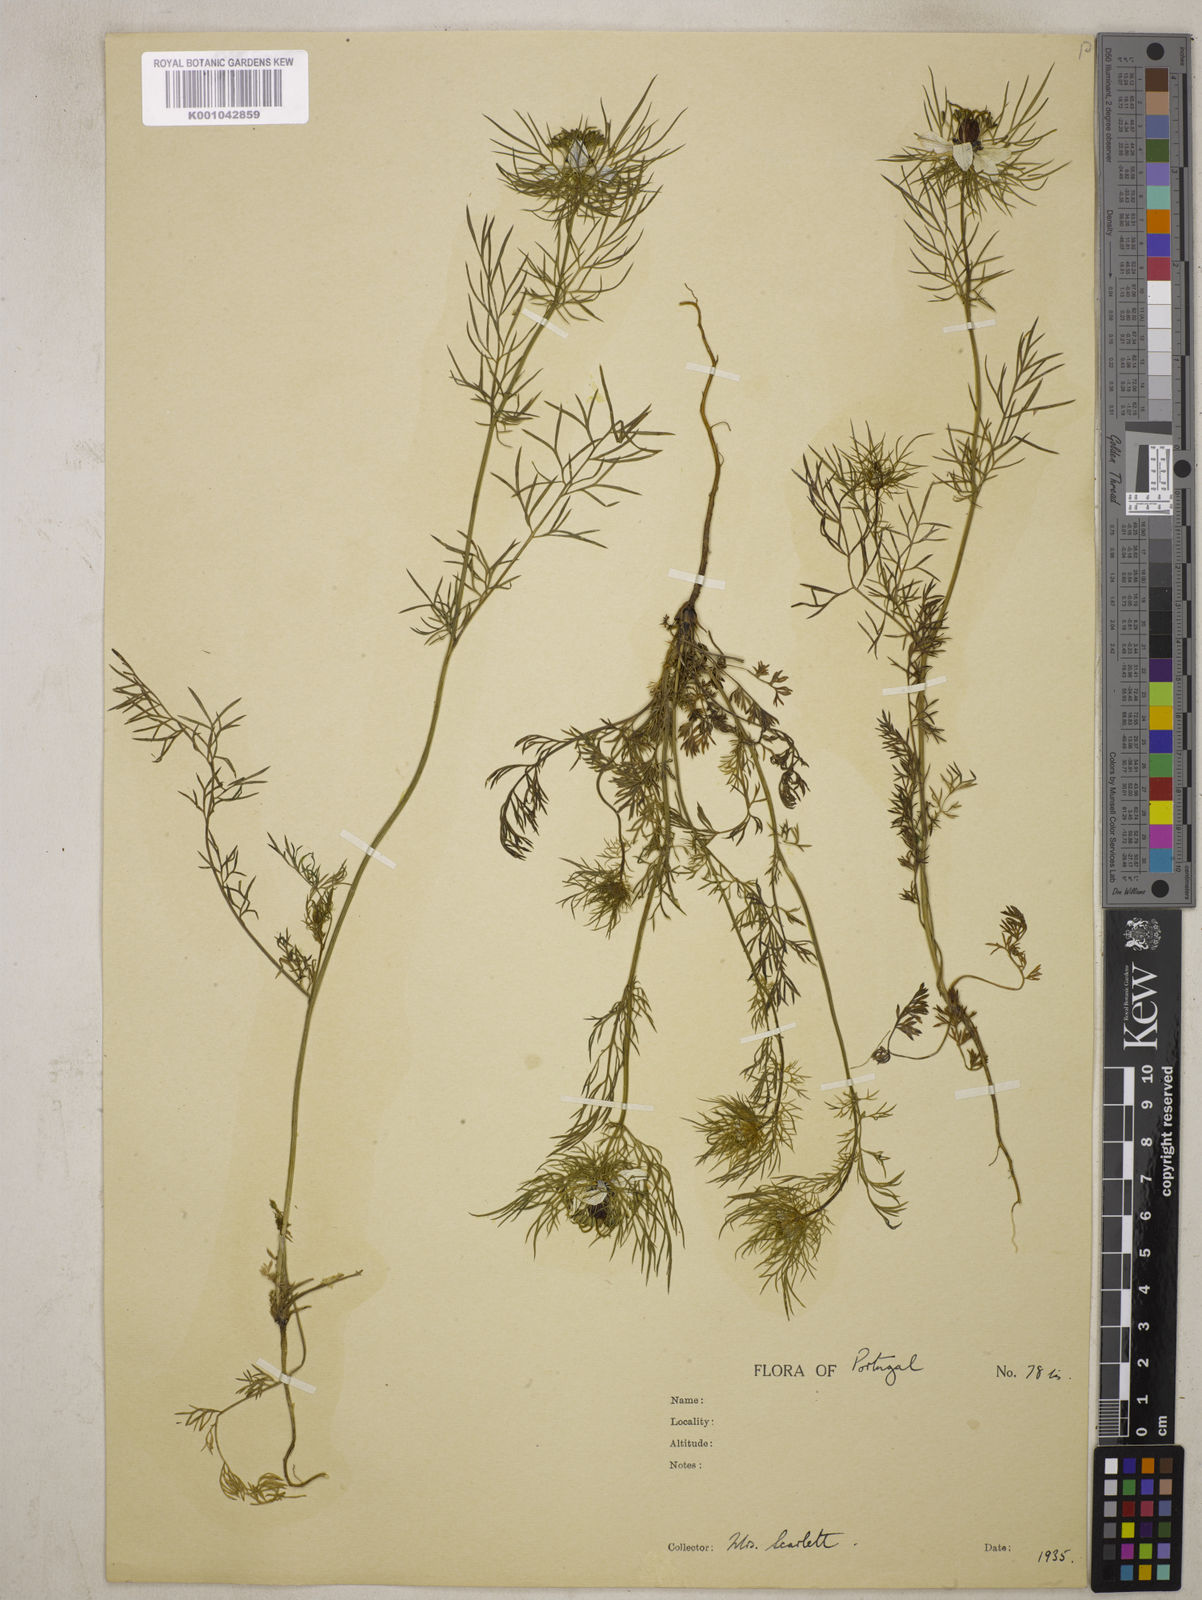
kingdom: Plantae
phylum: Tracheophyta
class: Magnoliopsida
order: Ranunculales
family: Ranunculaceae
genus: Nigella
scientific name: Nigella damascena
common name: Love-in-a-mist
